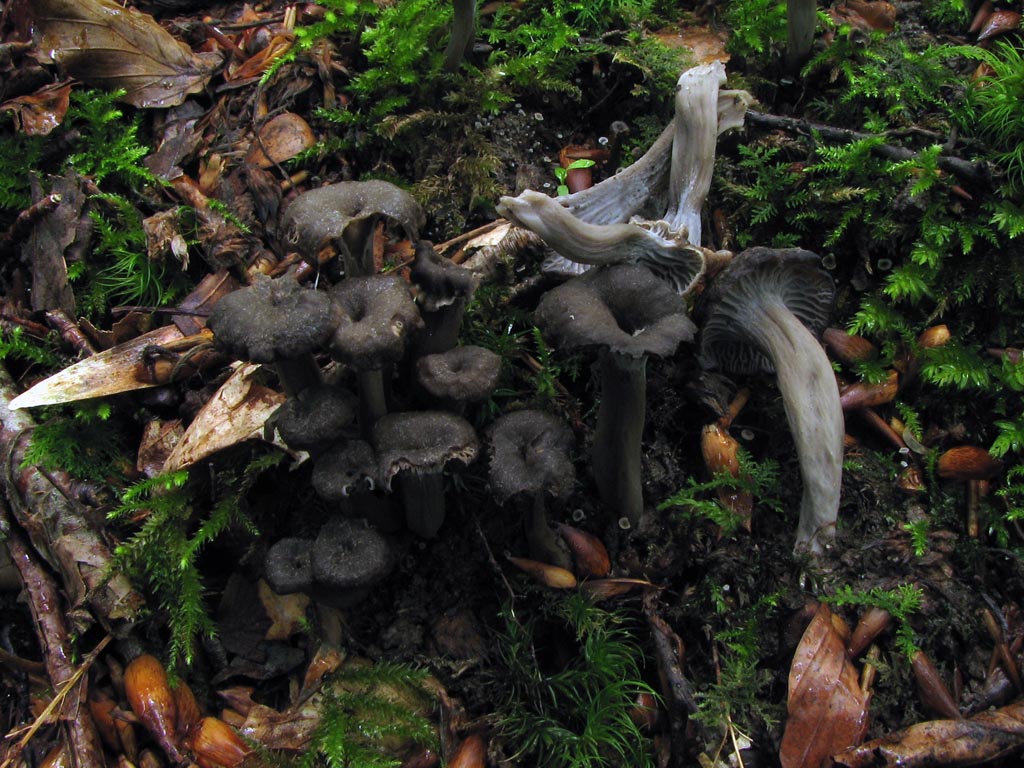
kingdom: Fungi
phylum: Basidiomycota
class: Agaricomycetes
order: Cantharellales
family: Hydnaceae
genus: Cantharellus
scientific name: Cantharellus cinereus
